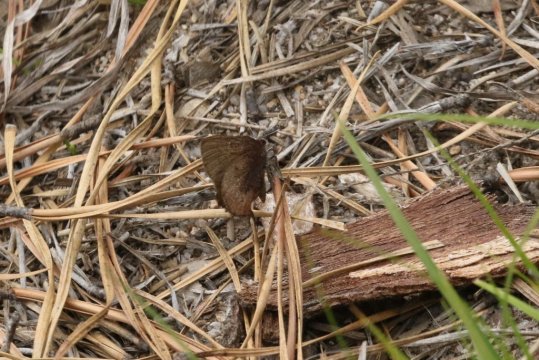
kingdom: Animalia
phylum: Arthropoda
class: Insecta
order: Lepidoptera
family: Lycaenidae
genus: Incisalia
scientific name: Incisalia irioides
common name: Brown Elfin
